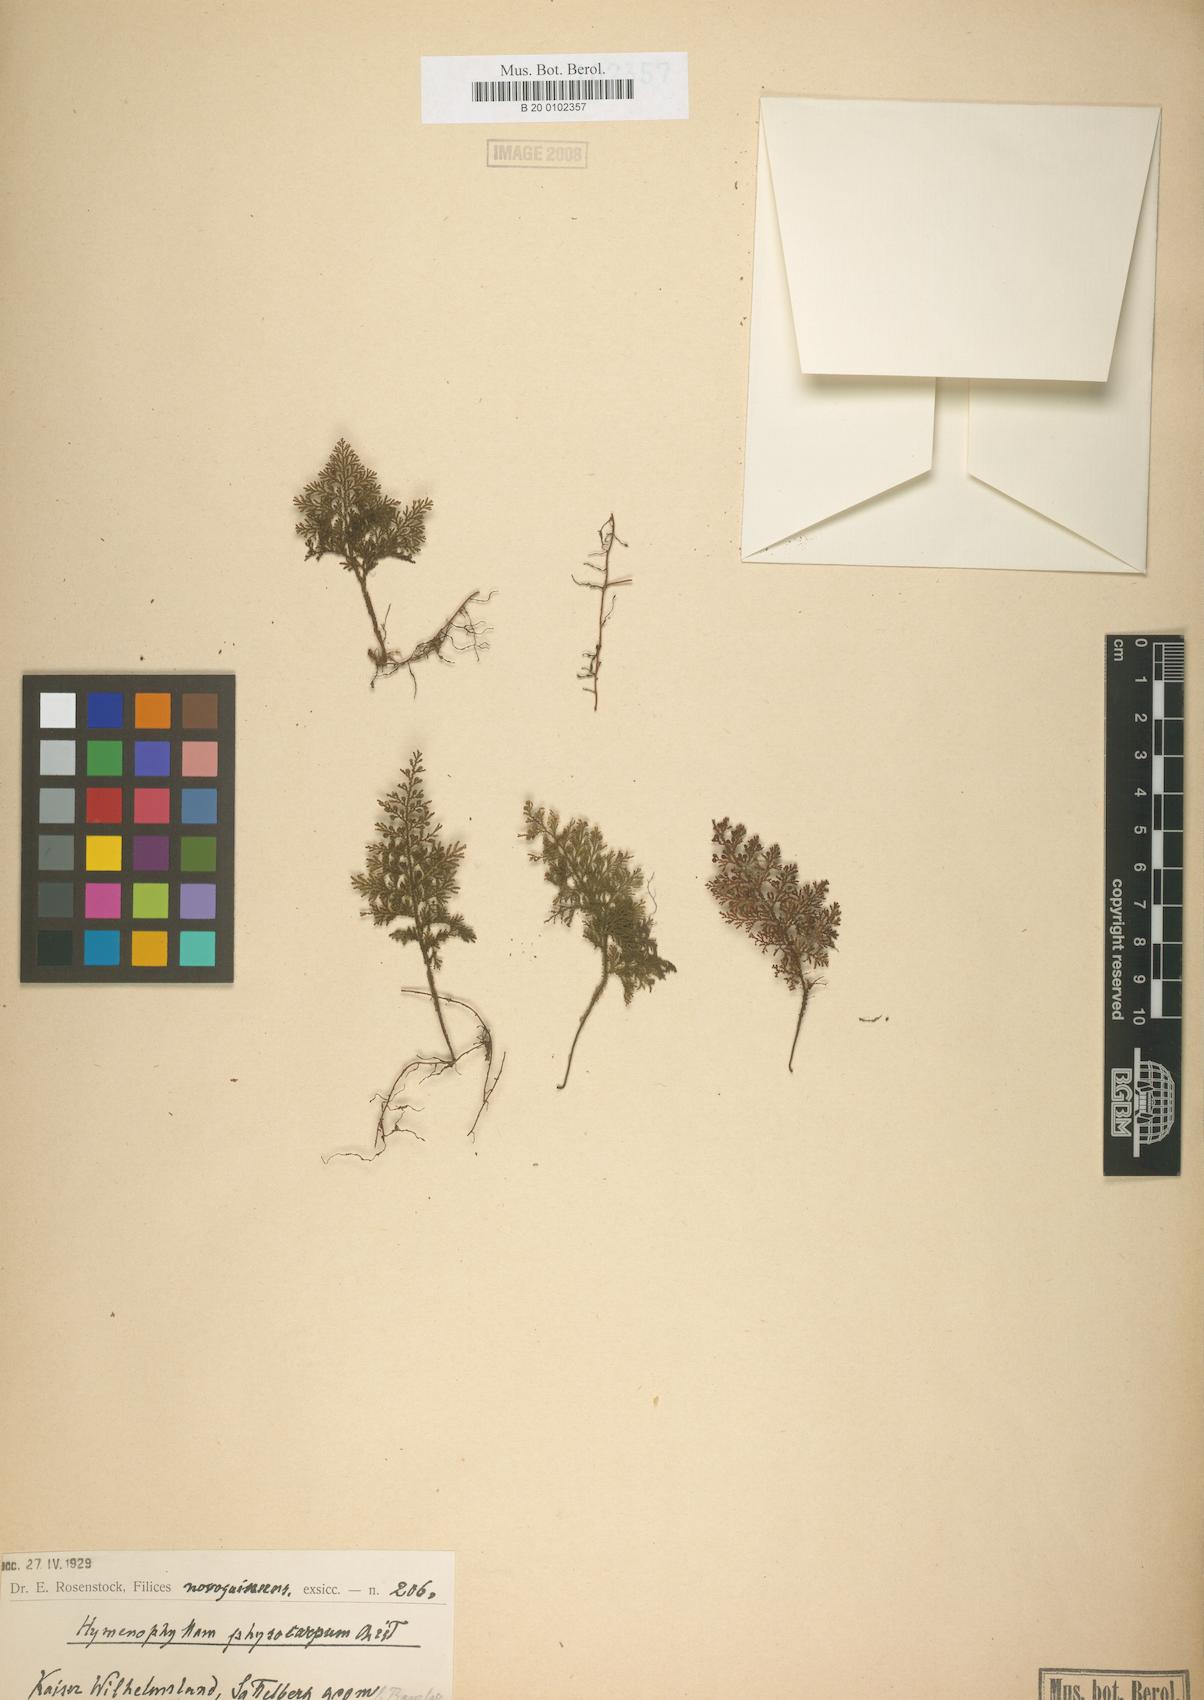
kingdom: Plantae
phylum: Tracheophyta
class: Polypodiopsida
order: Hymenophyllales
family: Hymenophyllaceae
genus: Hymenophyllum
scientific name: Hymenophyllum thuidium
